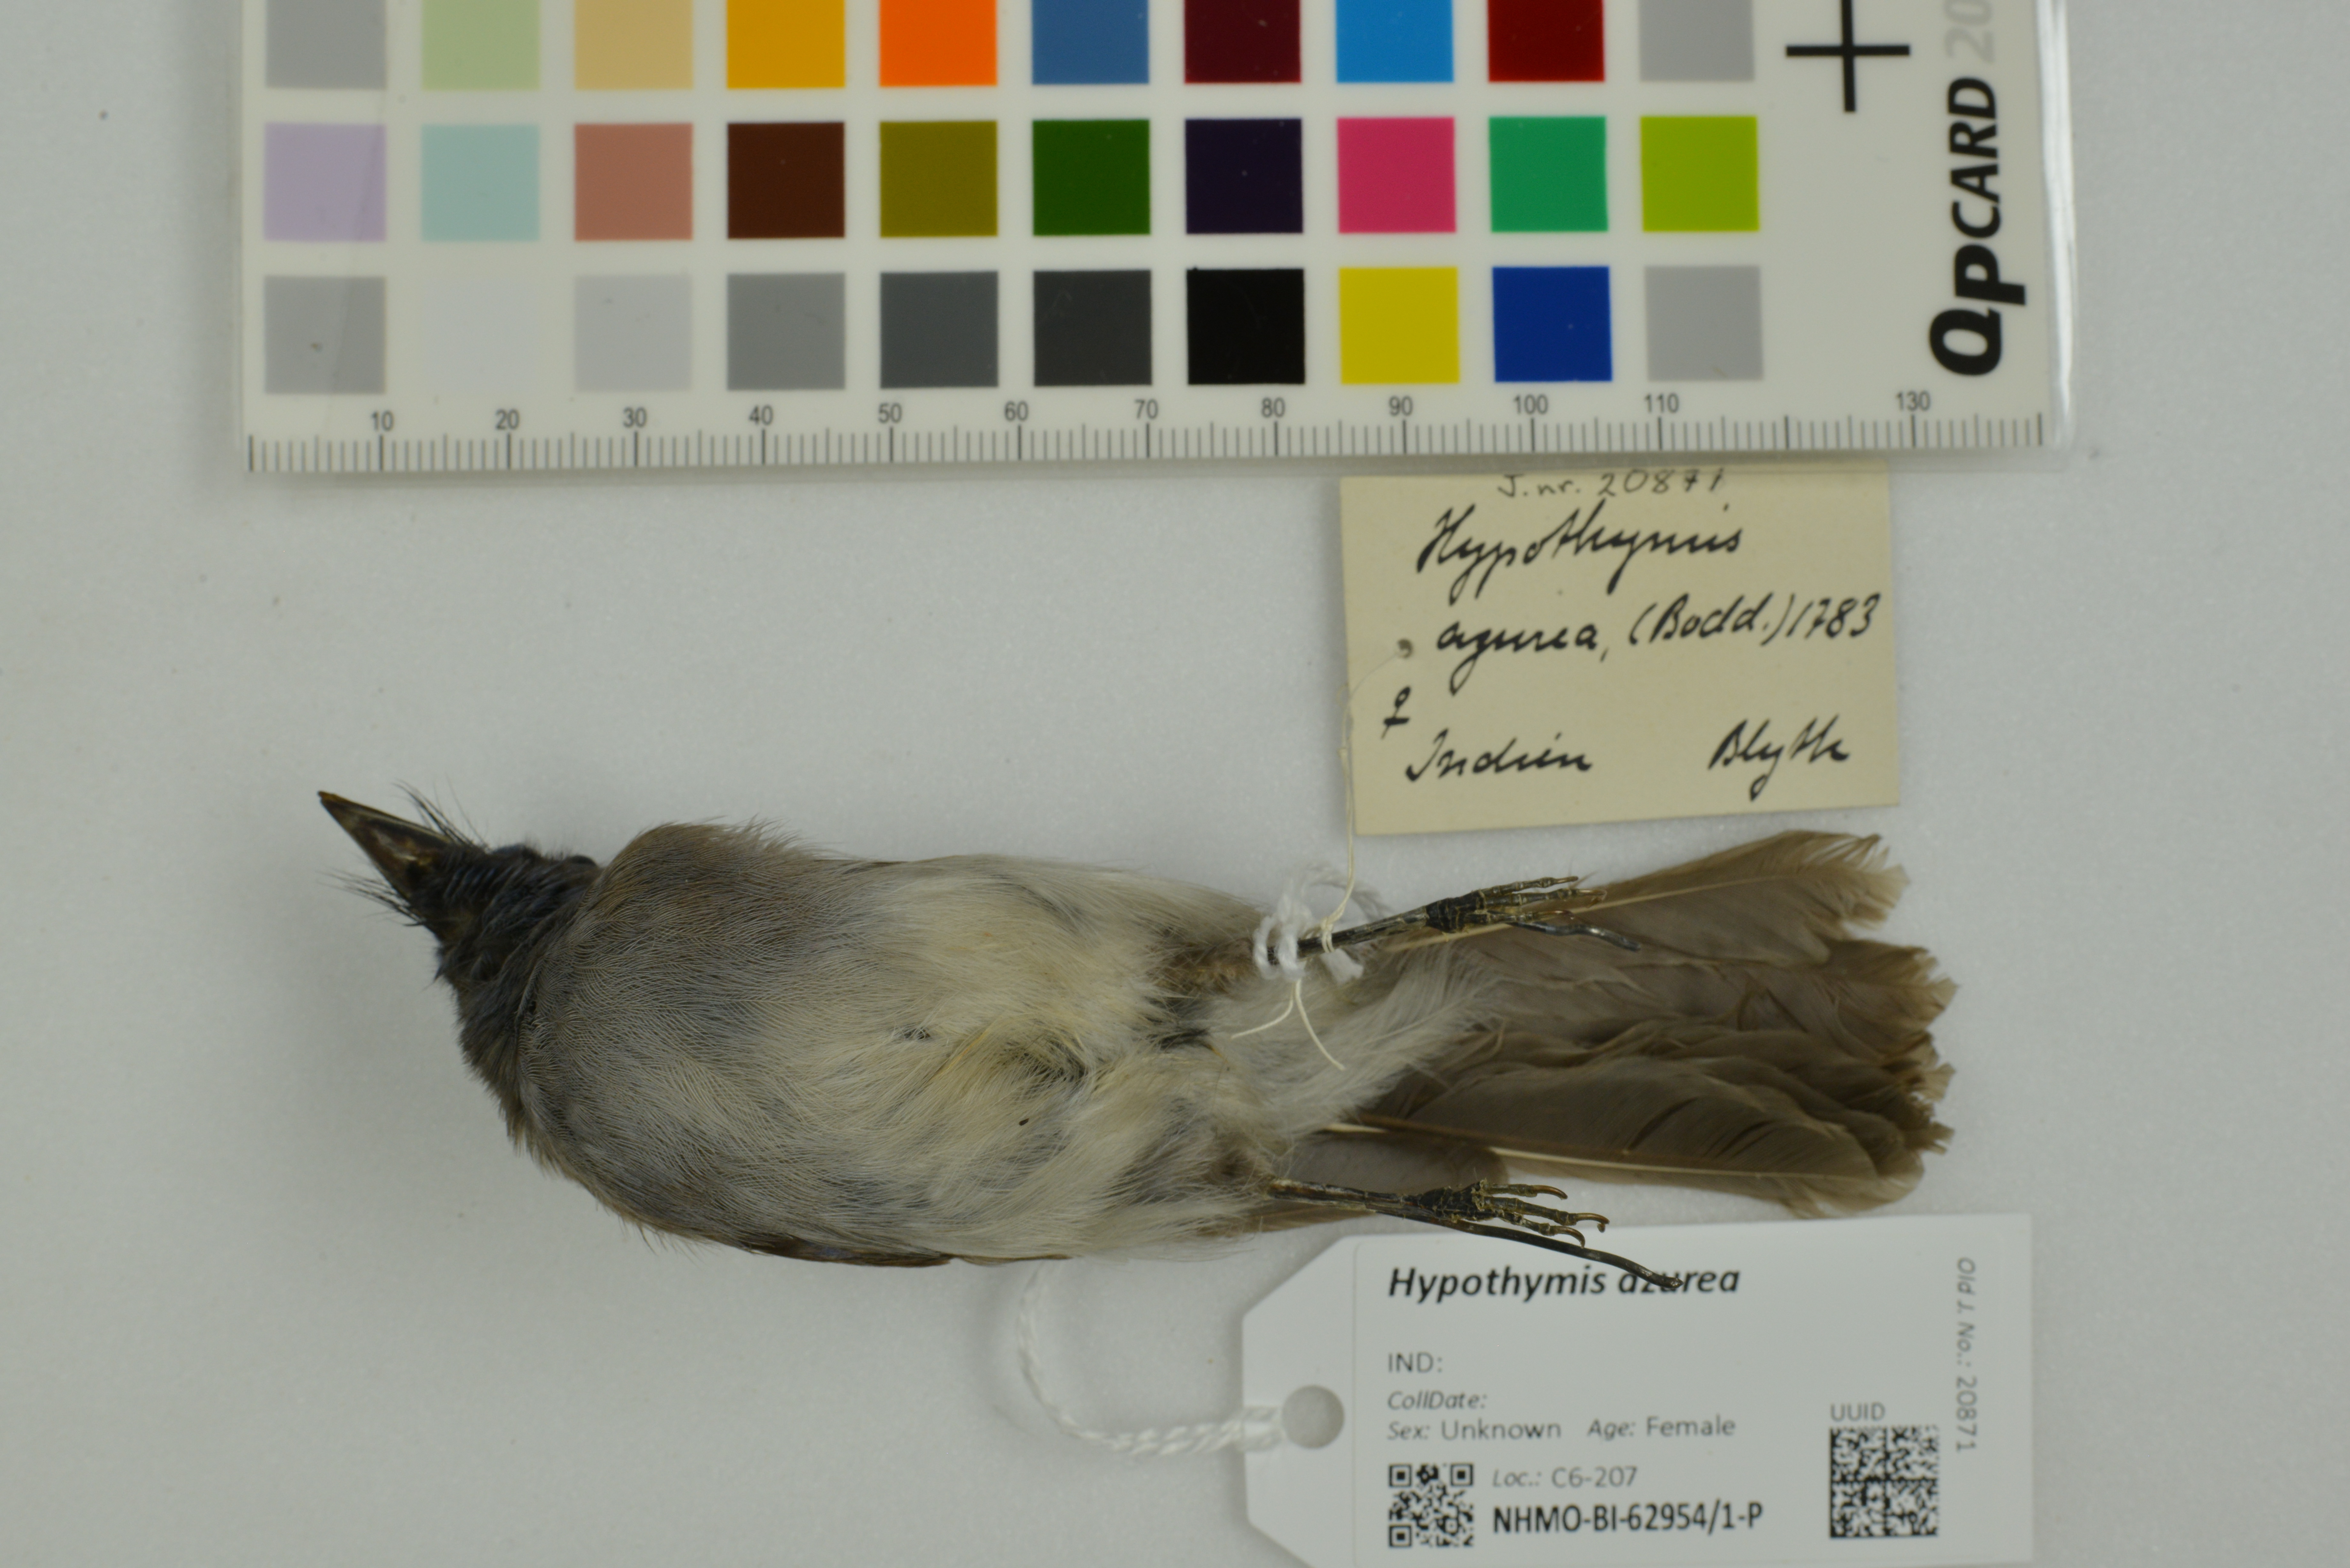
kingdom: Animalia
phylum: Chordata
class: Aves
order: Passeriformes
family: Monarchidae
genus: Hypothymis
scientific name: Hypothymis azurea
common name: Black-naped monarch
